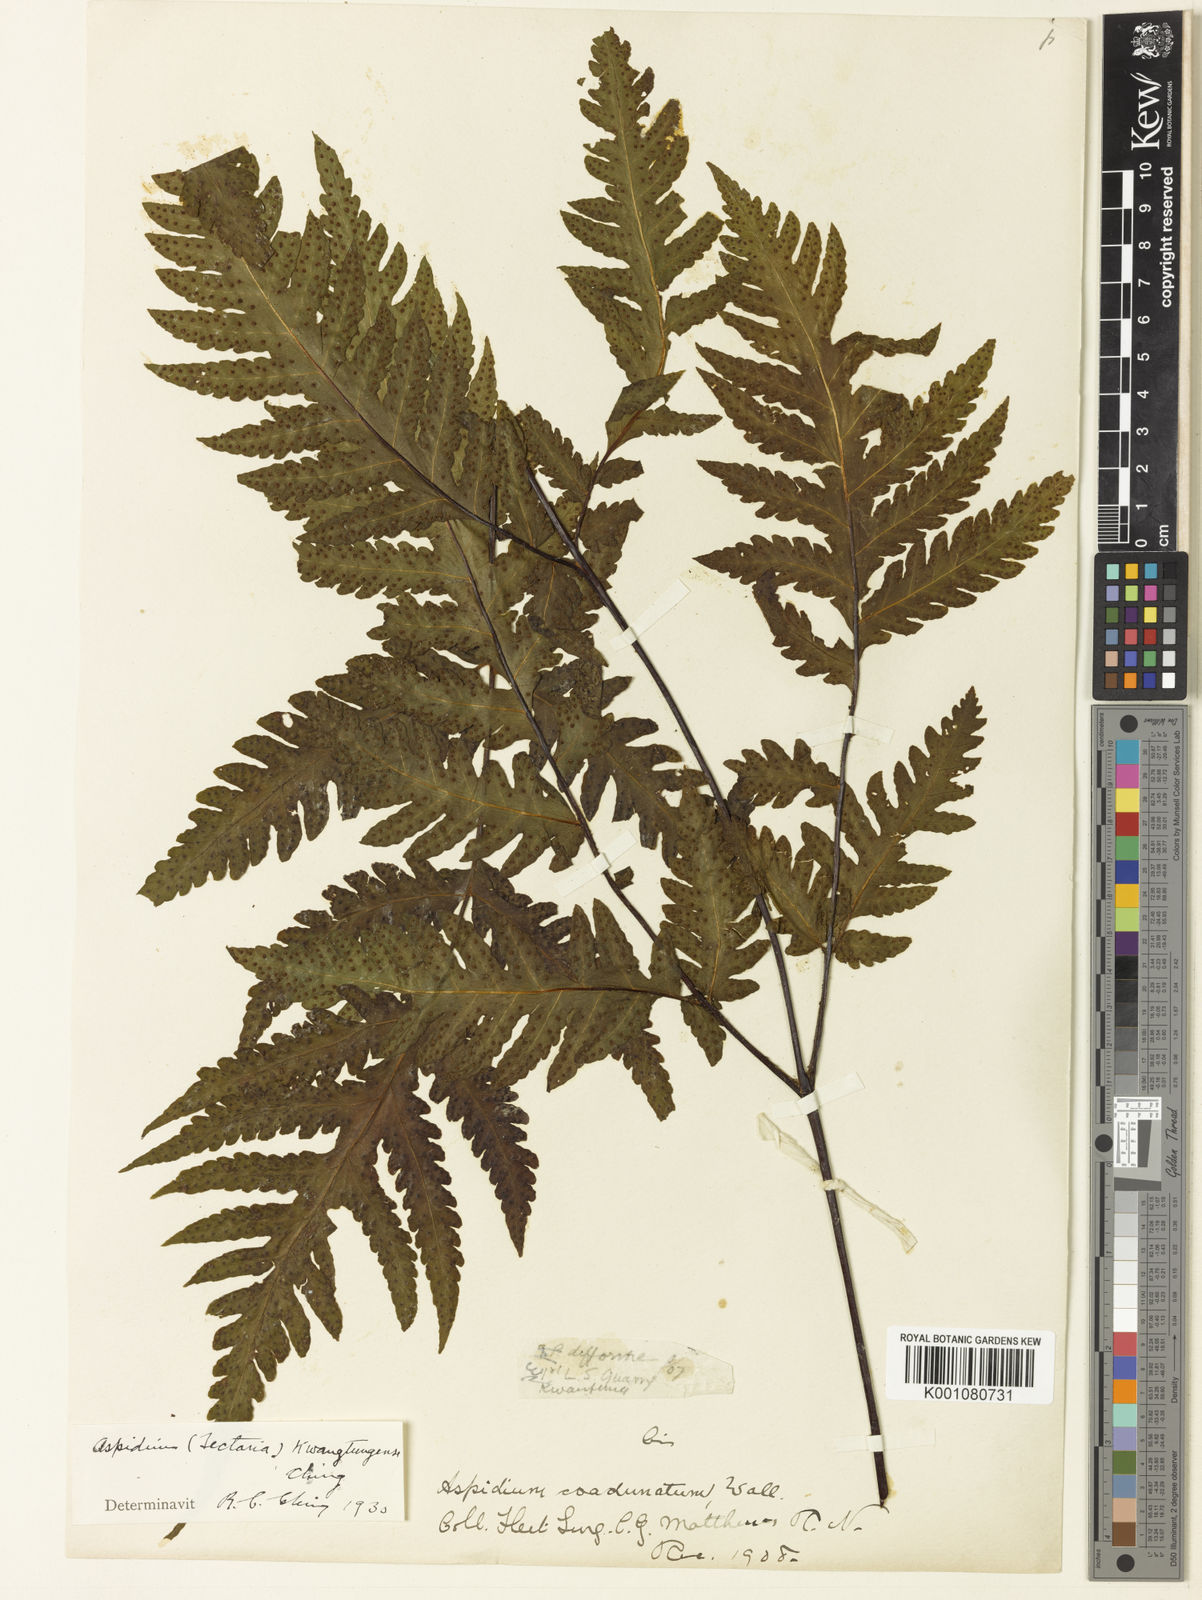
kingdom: Plantae
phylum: Tracheophyta
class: Polypodiopsida
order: Polypodiales
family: Tectariaceae
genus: Tectaria
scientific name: Tectaria coadunata
